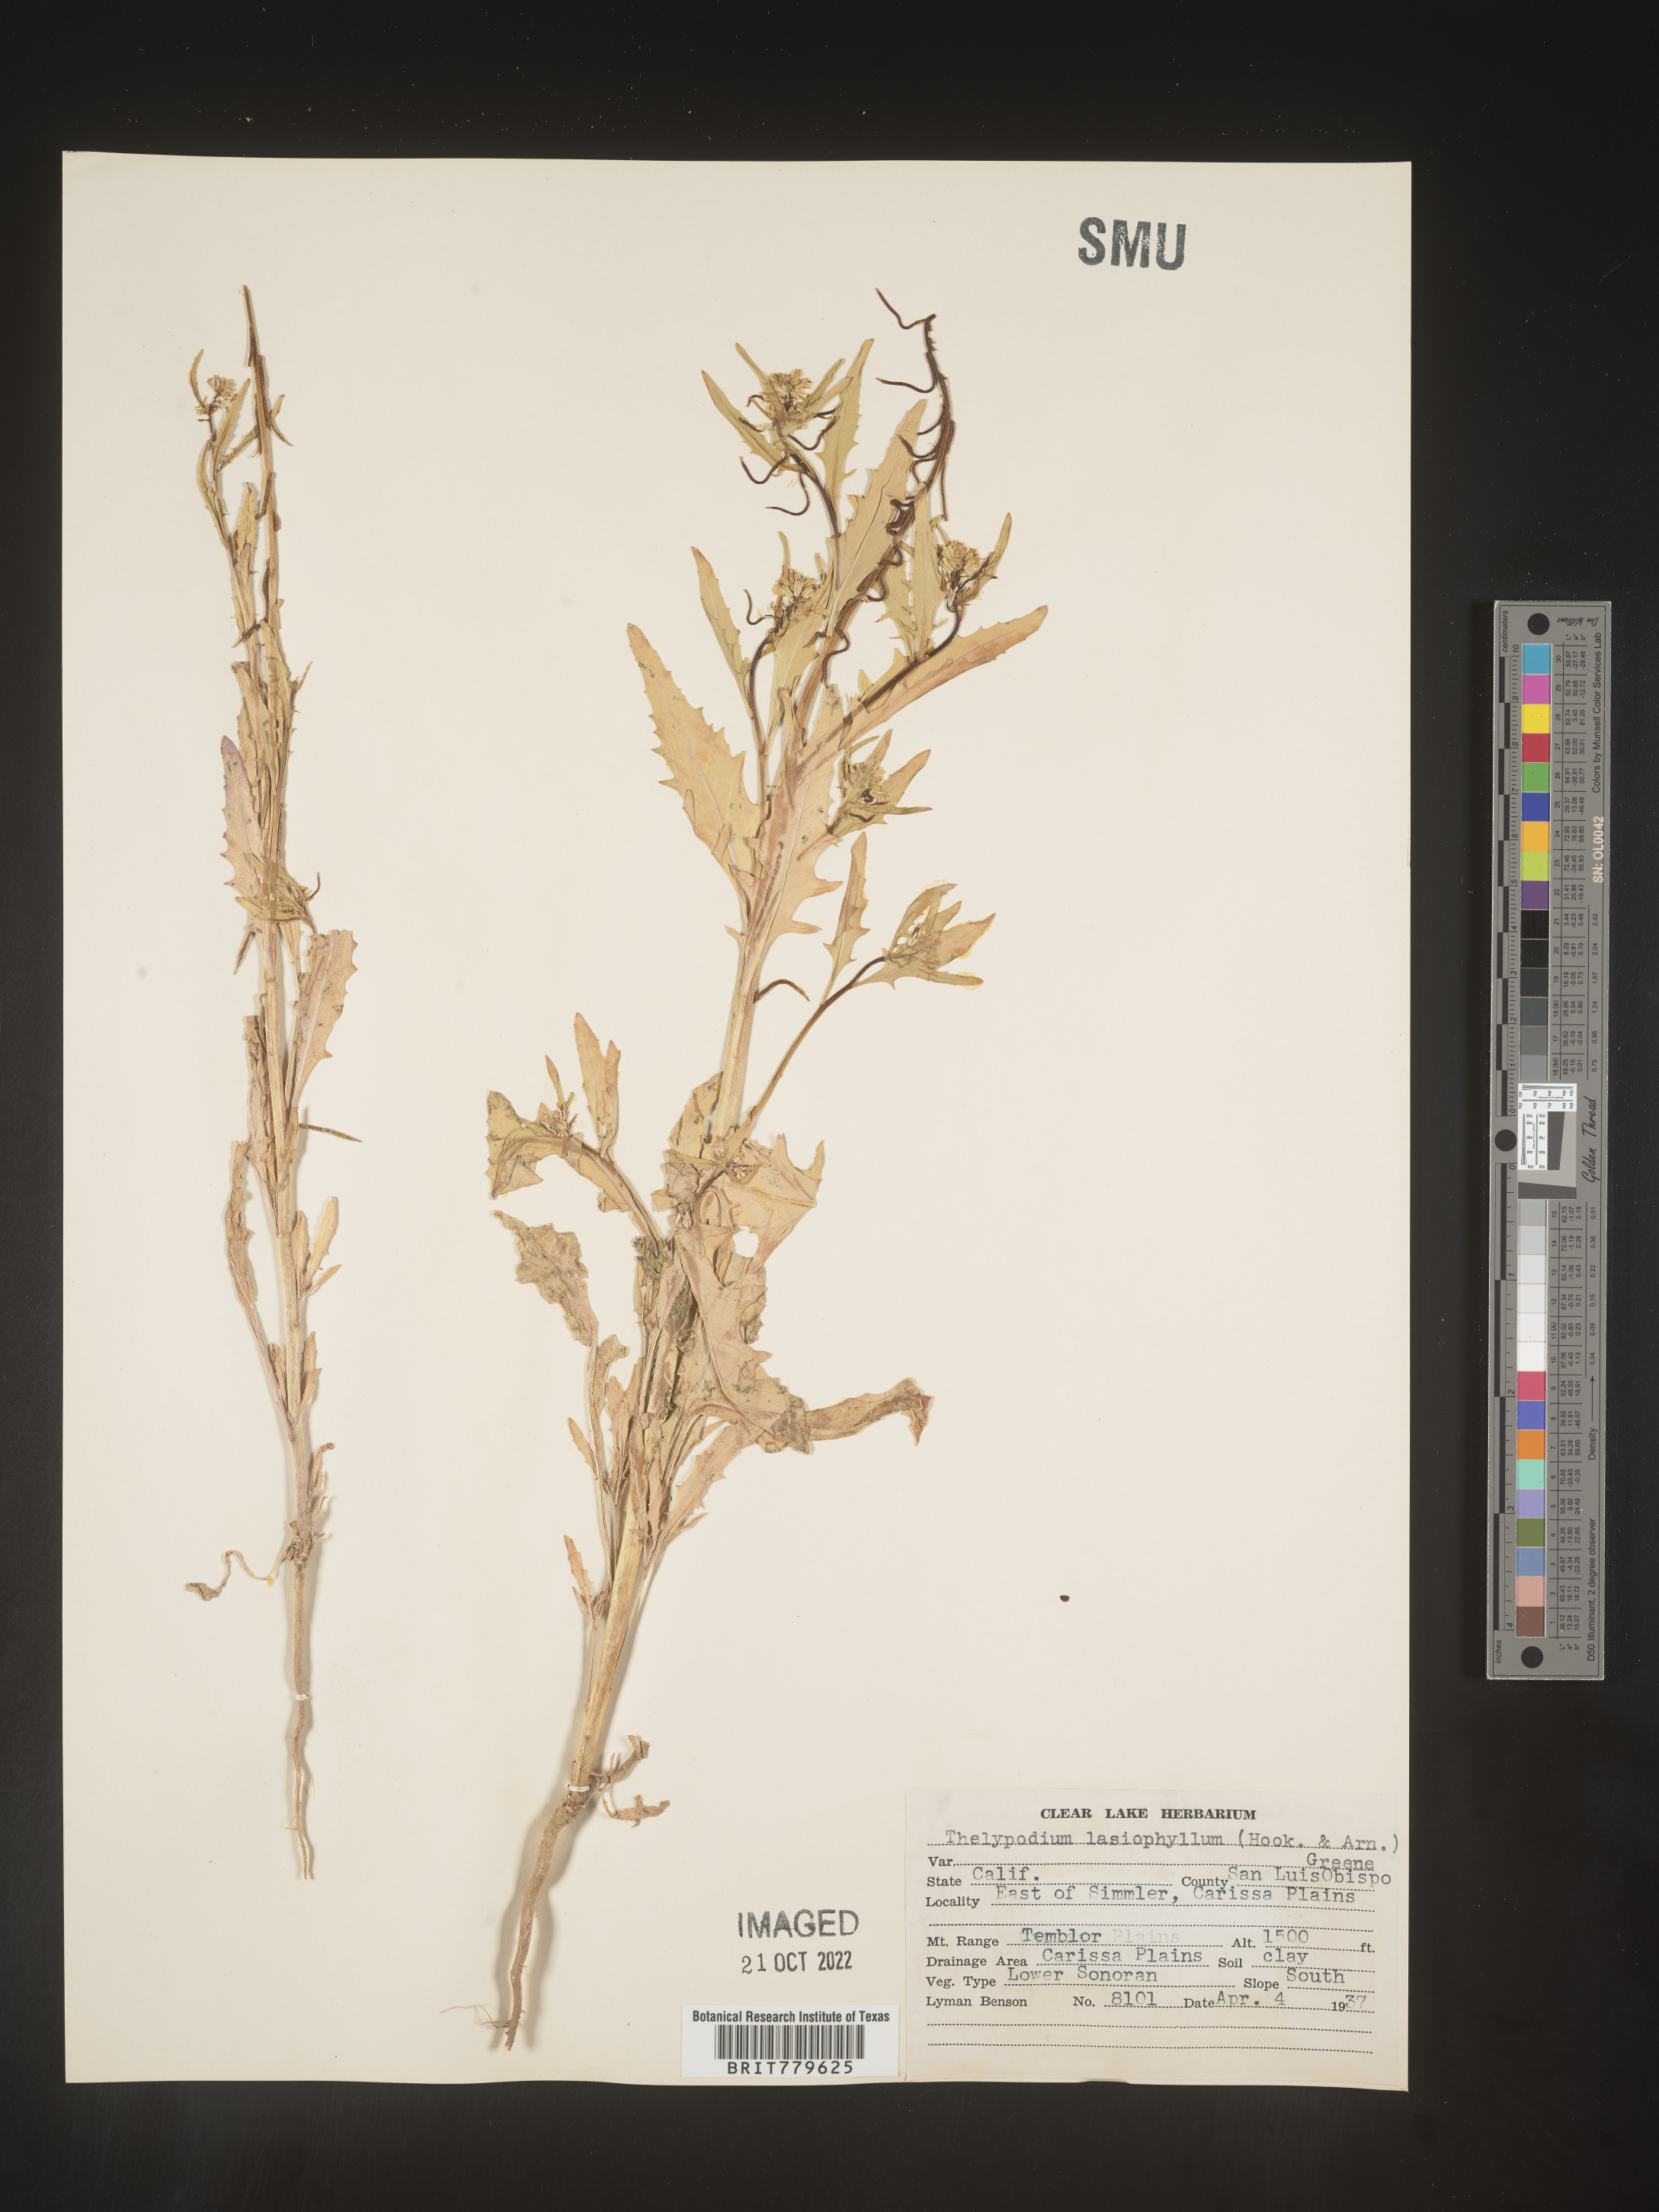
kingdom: Plantae
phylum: Tracheophyta
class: Magnoliopsida
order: Brassicales
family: Brassicaceae
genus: Thelypodium
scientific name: Thelypodium
